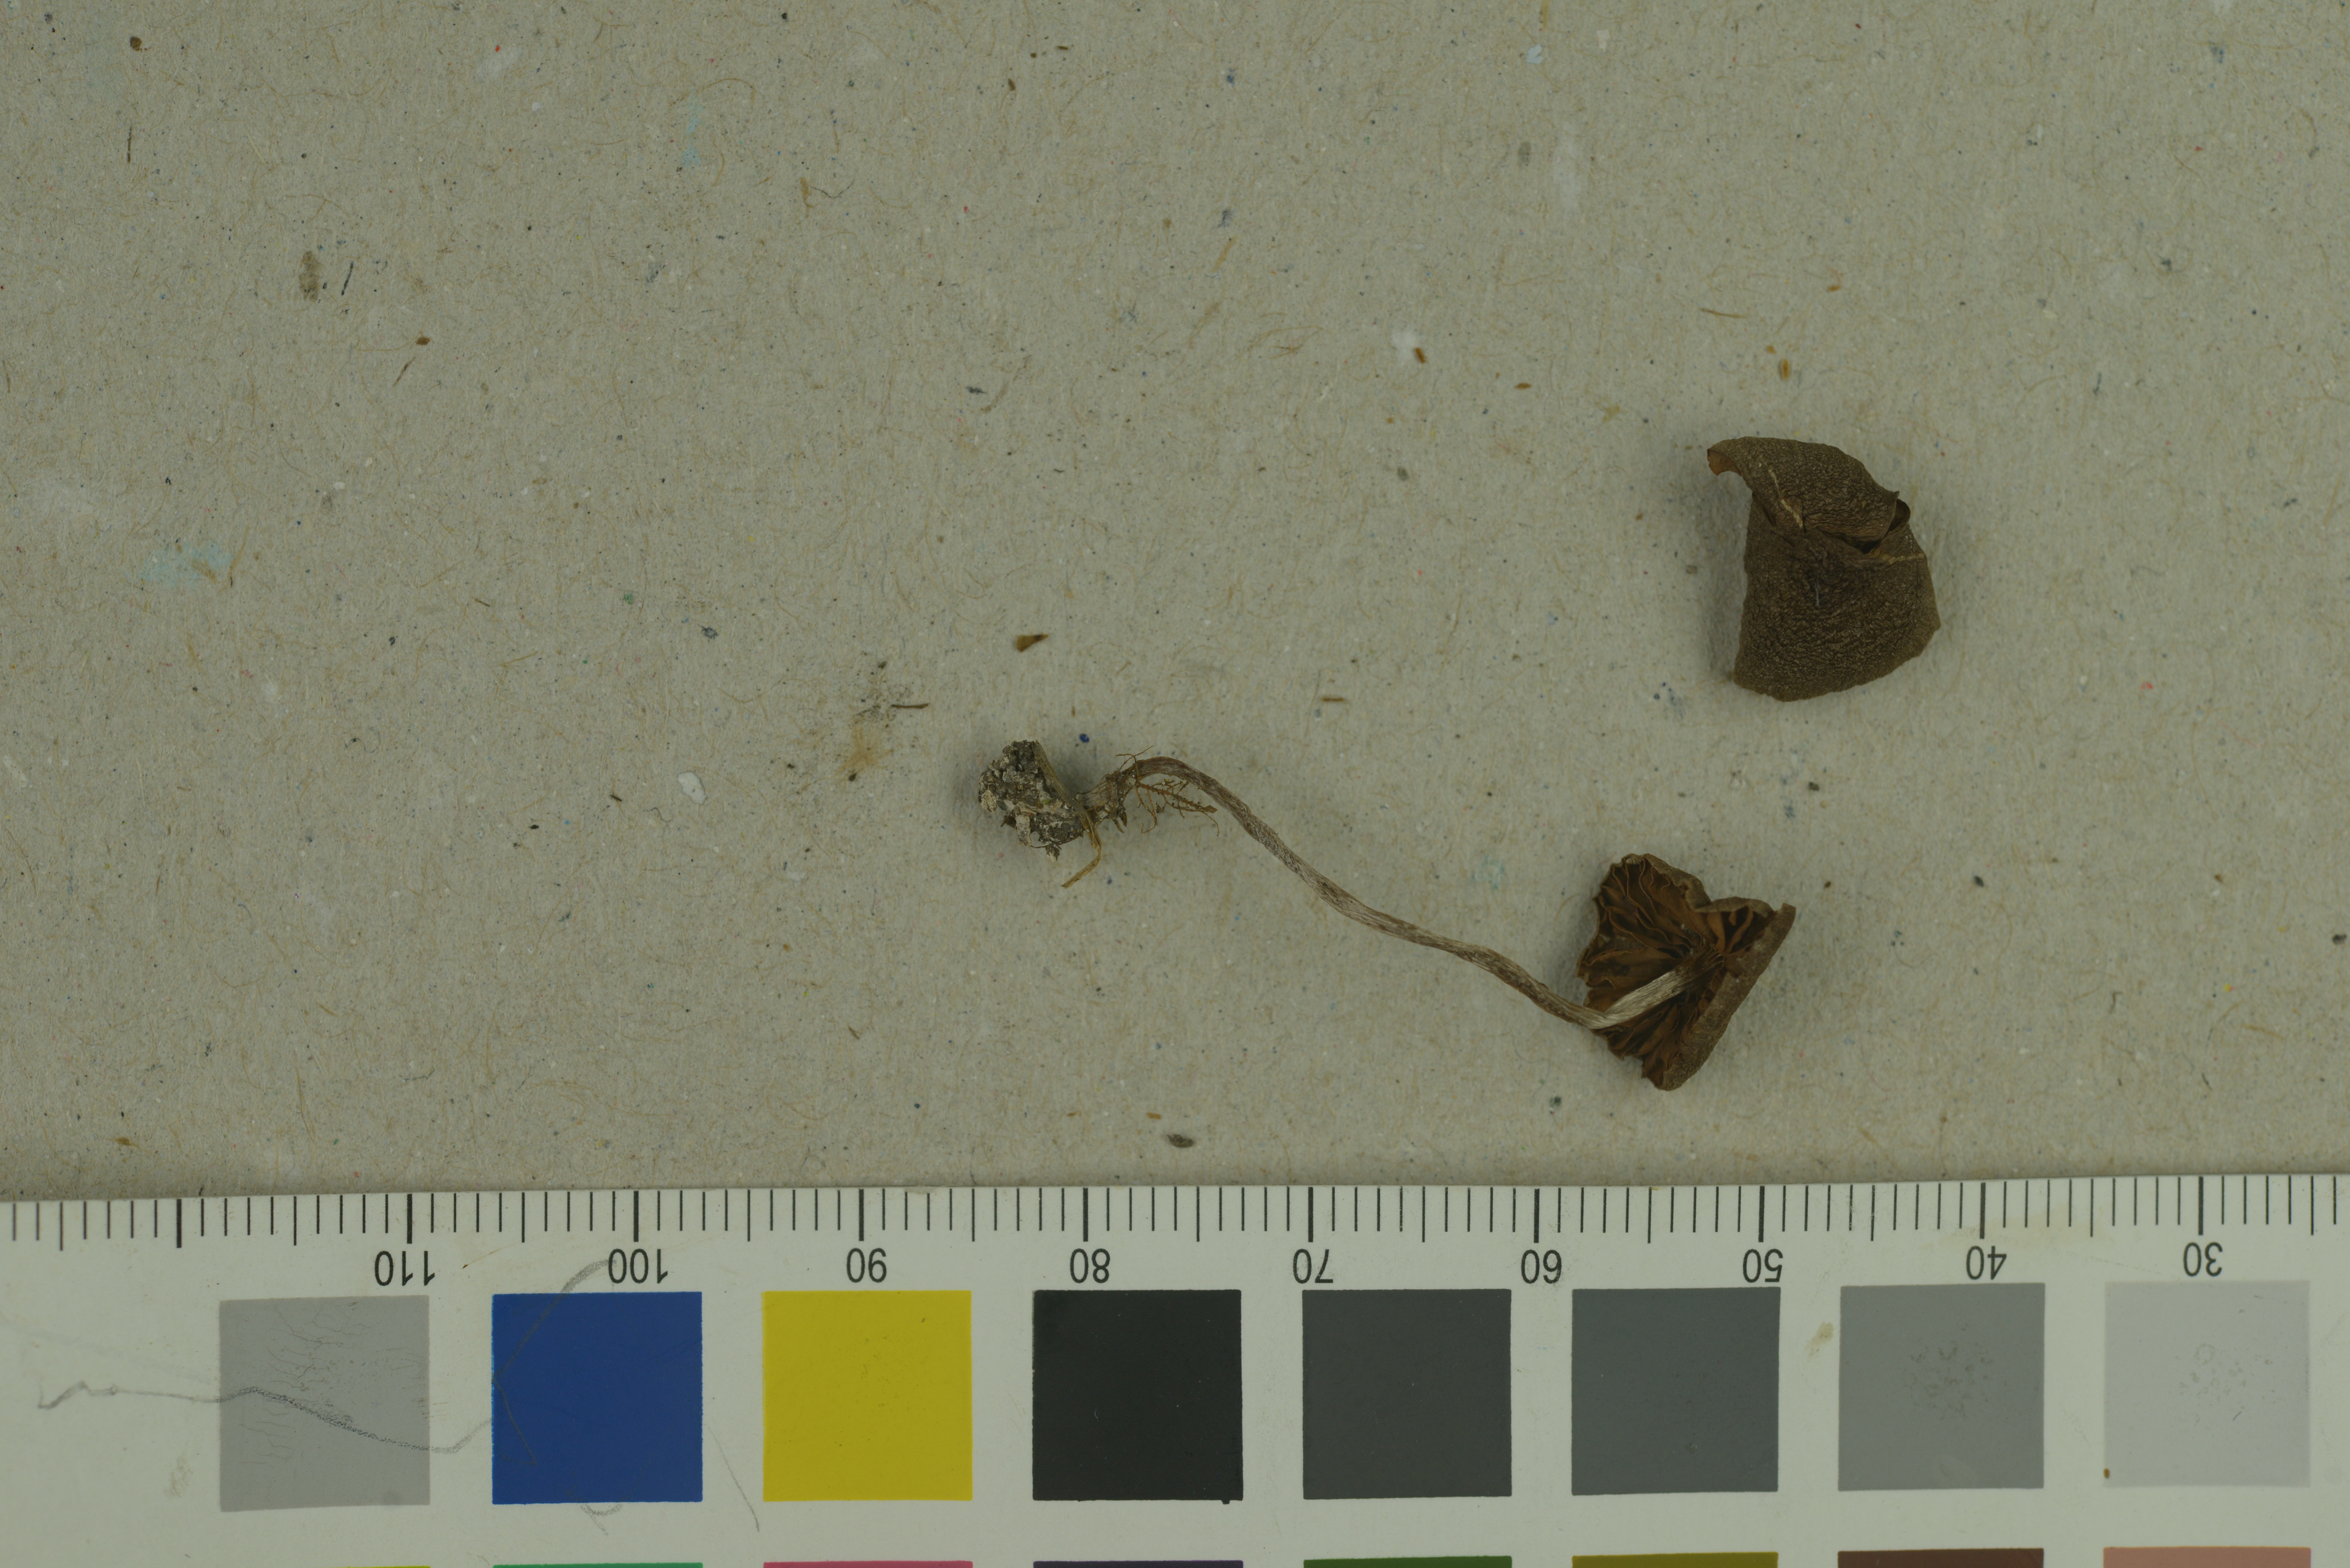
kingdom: Fungi
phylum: Basidiomycota
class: Agaricomycetes
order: Agaricales
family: Cortinariaceae
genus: Cortinarius
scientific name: Cortinarius castaneus
